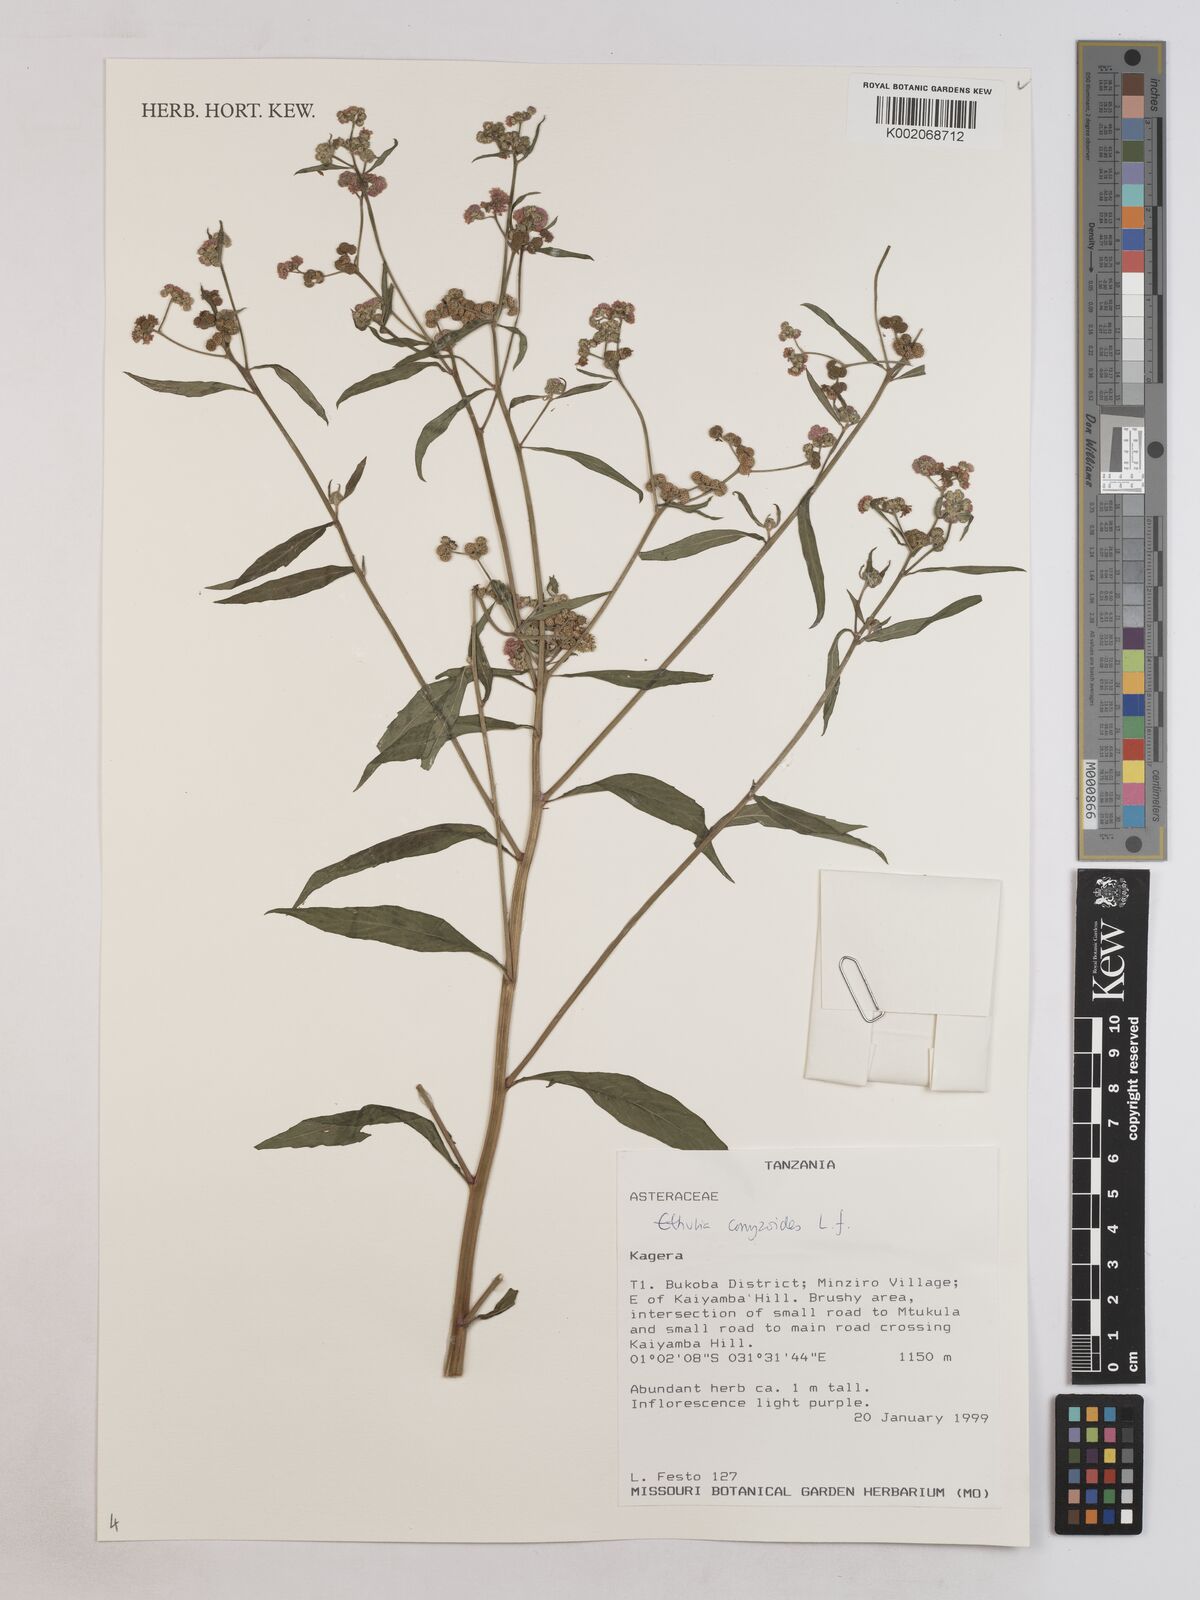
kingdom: Plantae
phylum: Tracheophyta
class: Magnoliopsida
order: Asterales
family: Asteraceae
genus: Ethulia
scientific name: Ethulia
